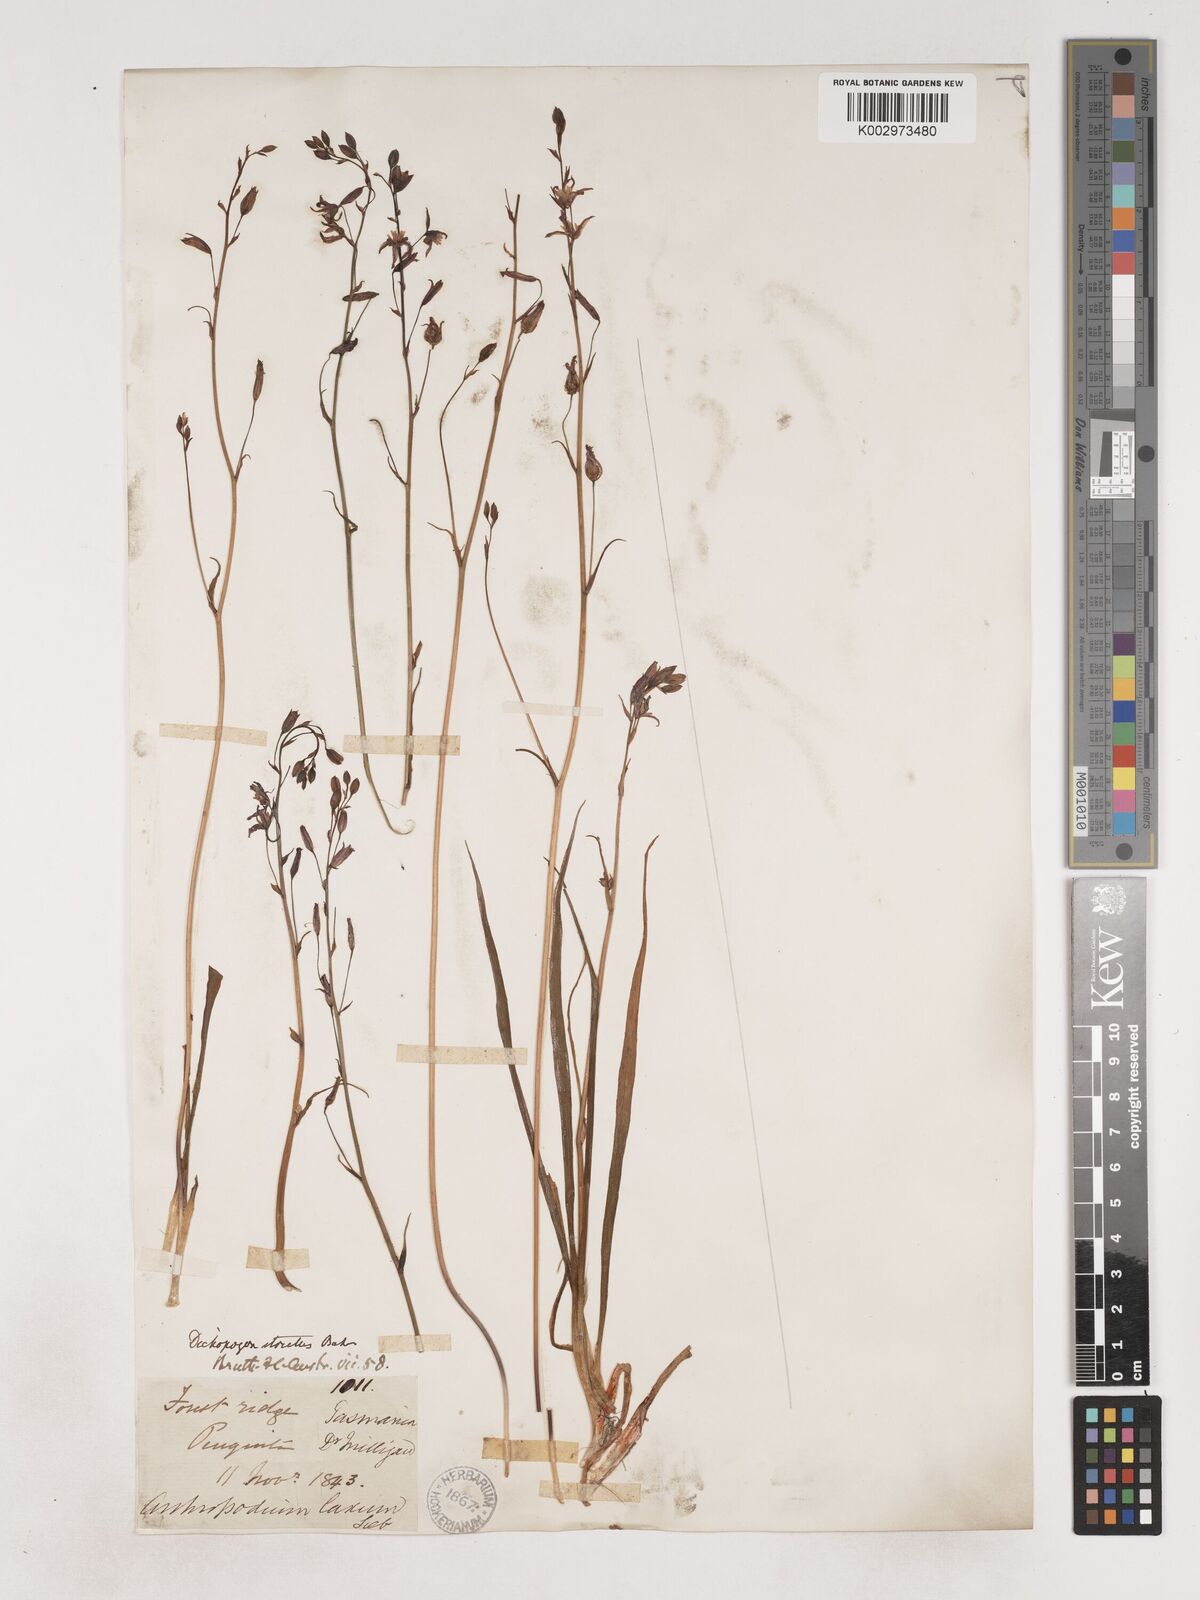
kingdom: Plantae
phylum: Tracheophyta
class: Liliopsida
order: Asparagales
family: Asparagaceae
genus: Arthropodium
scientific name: Arthropodium strictum
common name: Chocolate-lily
